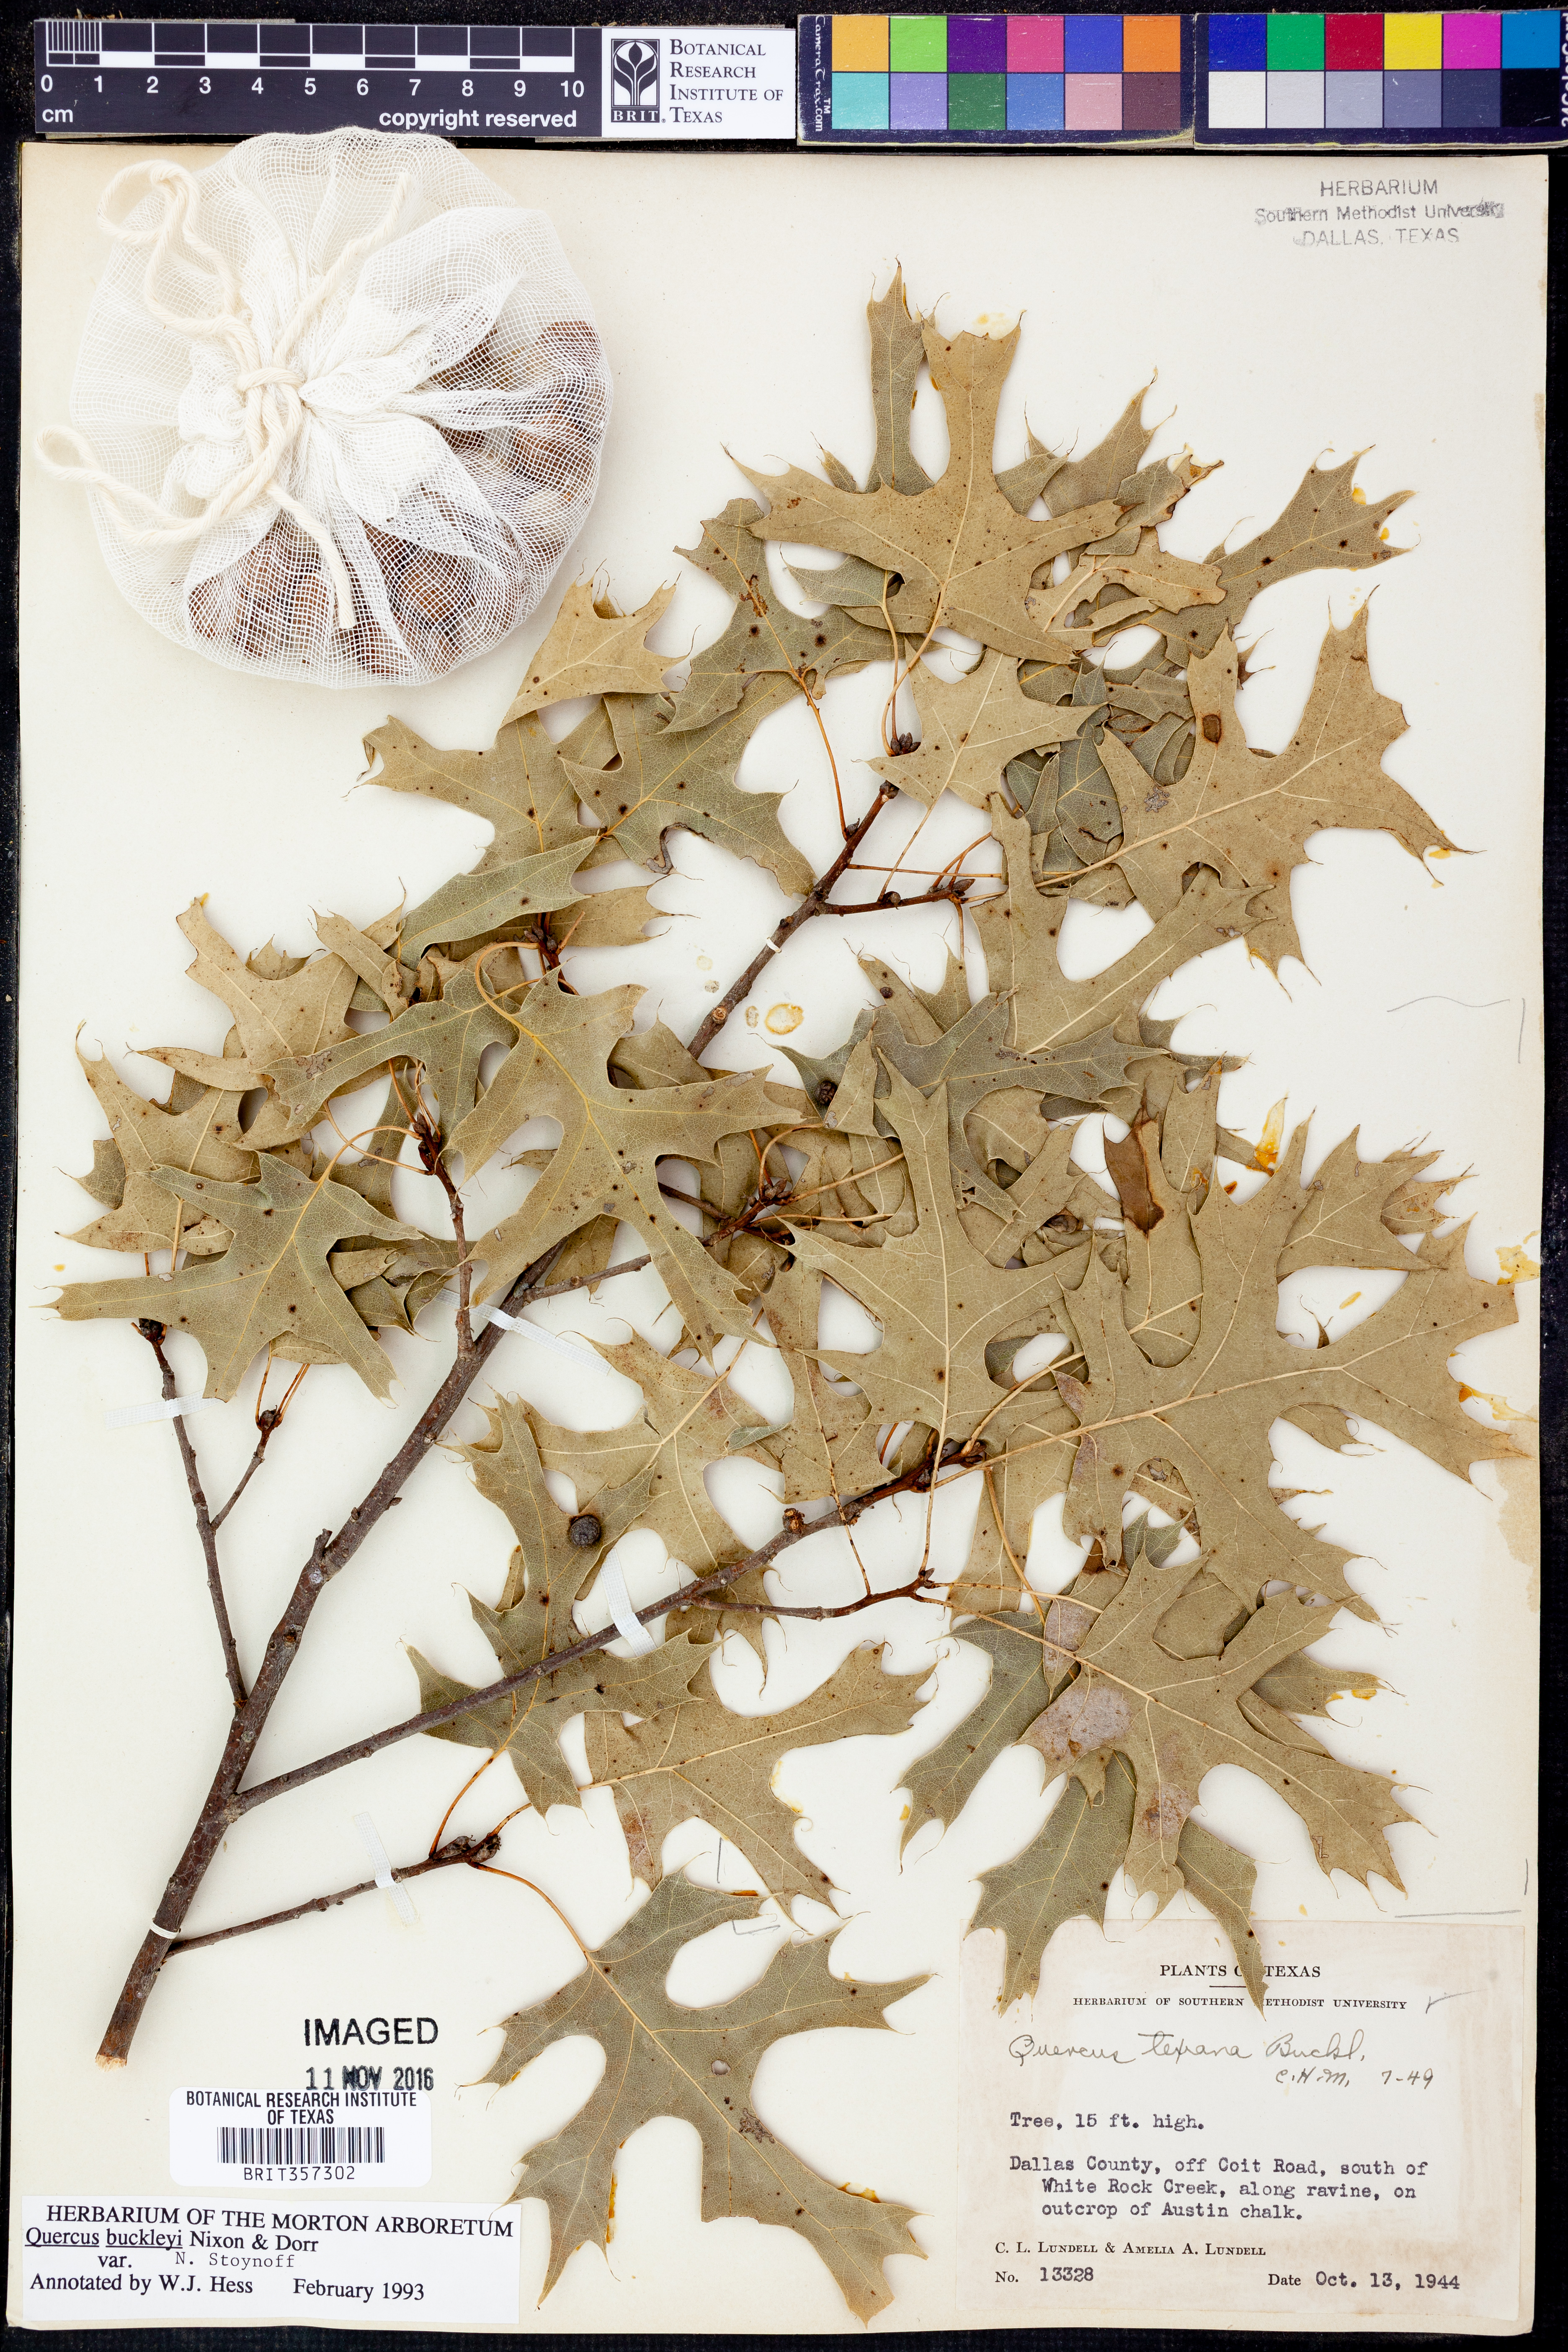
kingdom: Plantae
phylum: Tracheophyta
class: Magnoliopsida
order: Fagales
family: Fagaceae
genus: Quercus
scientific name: Quercus buckleyi
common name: Buckley oak
